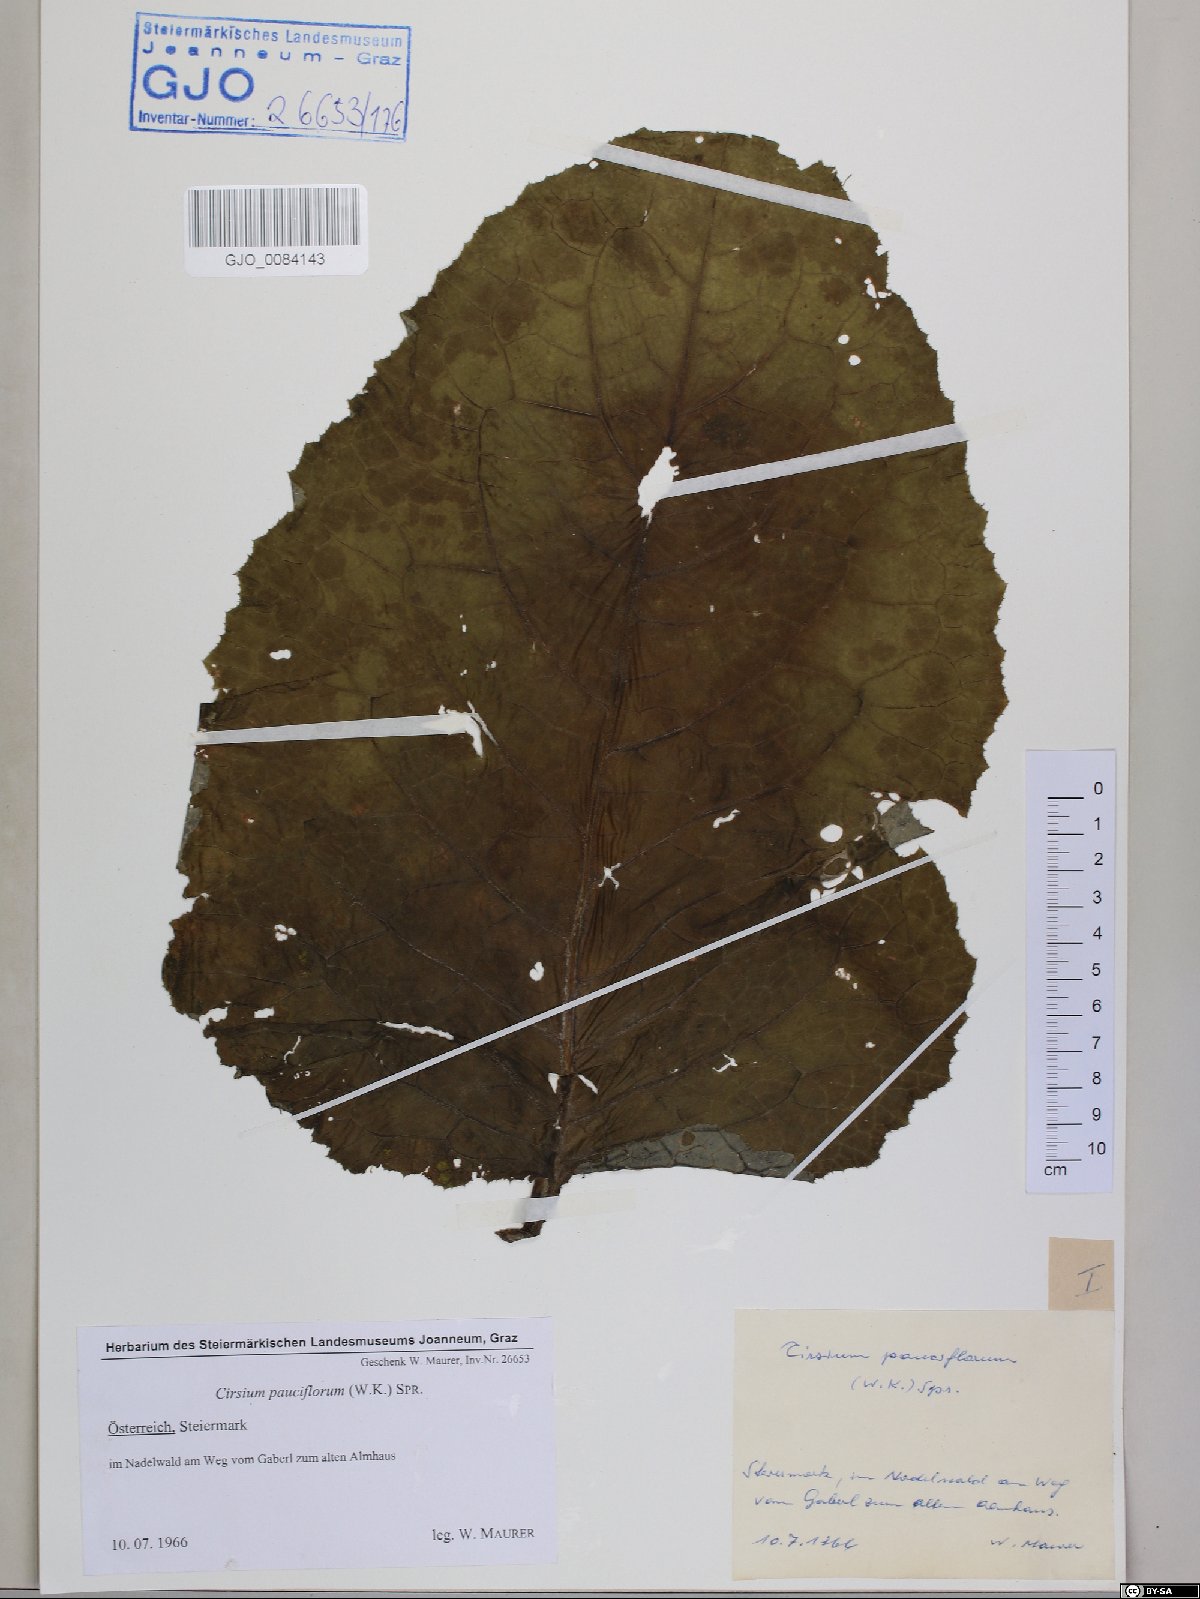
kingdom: Plantae
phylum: Tracheophyta
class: Magnoliopsida
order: Asterales
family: Asteraceae
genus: Cirsium
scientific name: Cirsium greimleri
